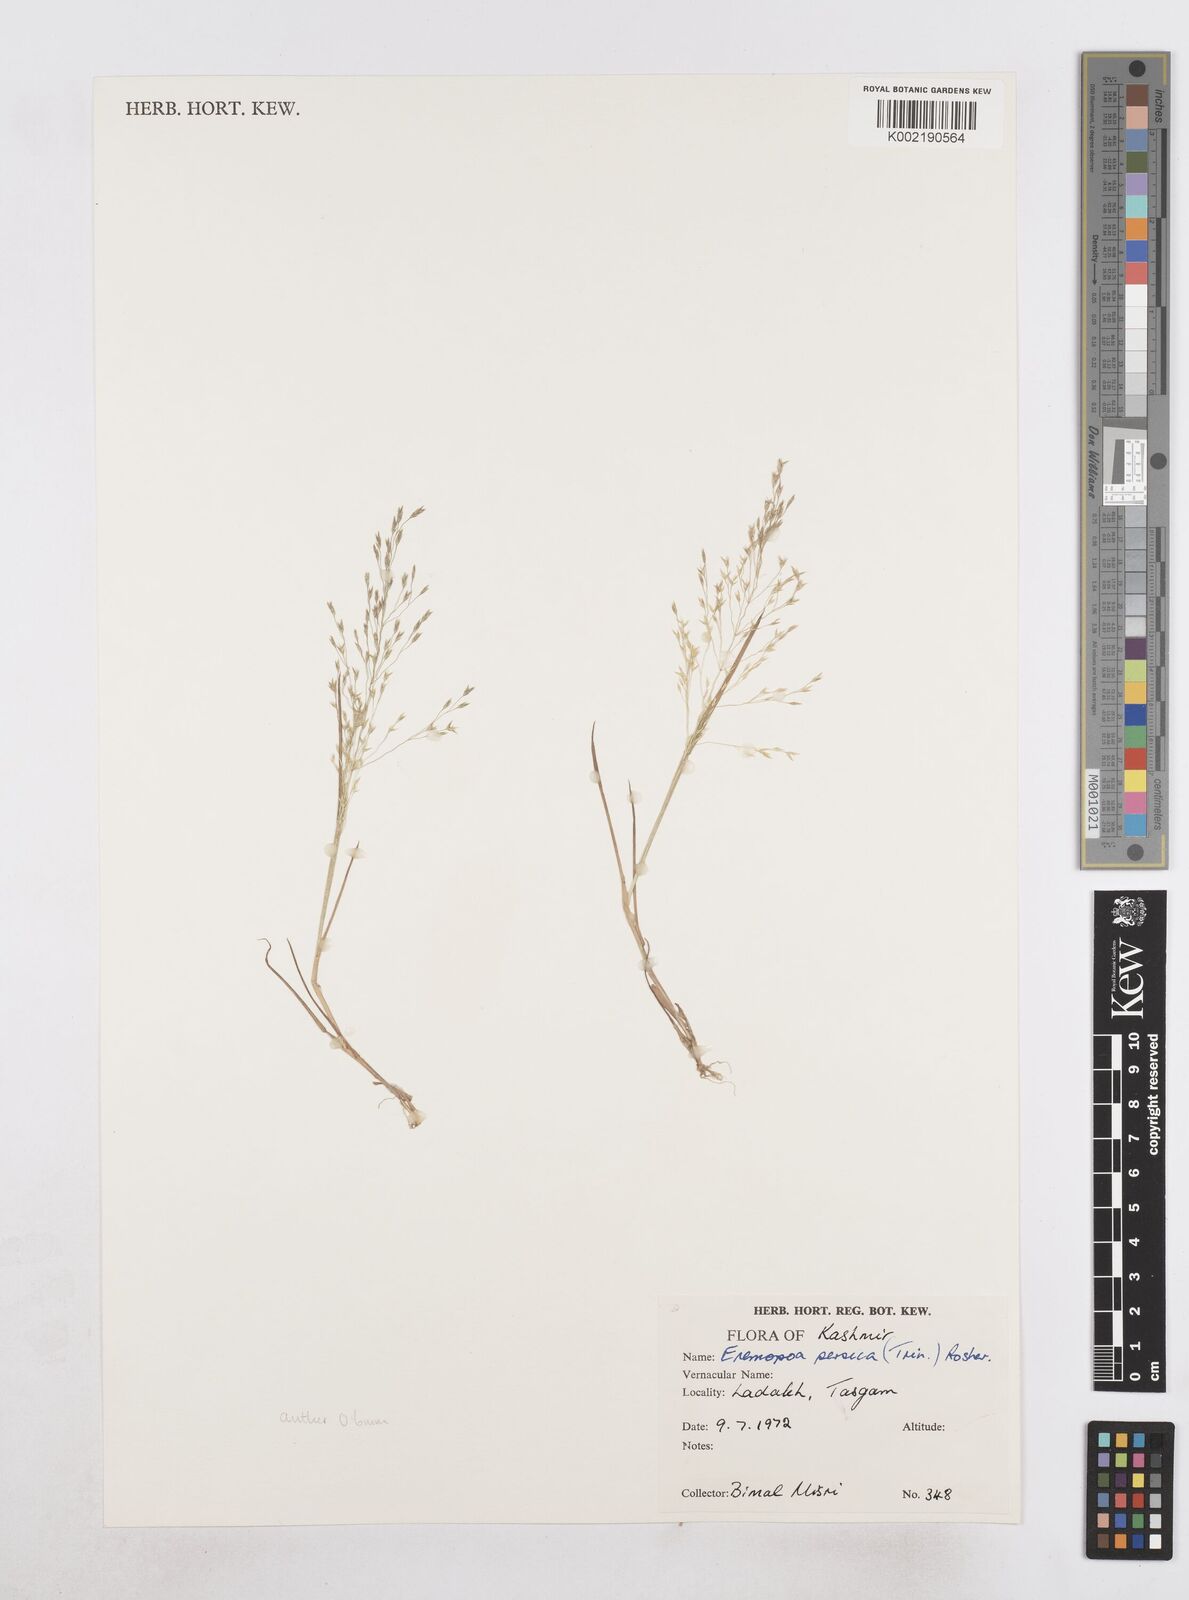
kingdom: Plantae
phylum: Tracheophyta
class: Liliopsida
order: Poales
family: Poaceae
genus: Poa
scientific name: Poa diaphora
